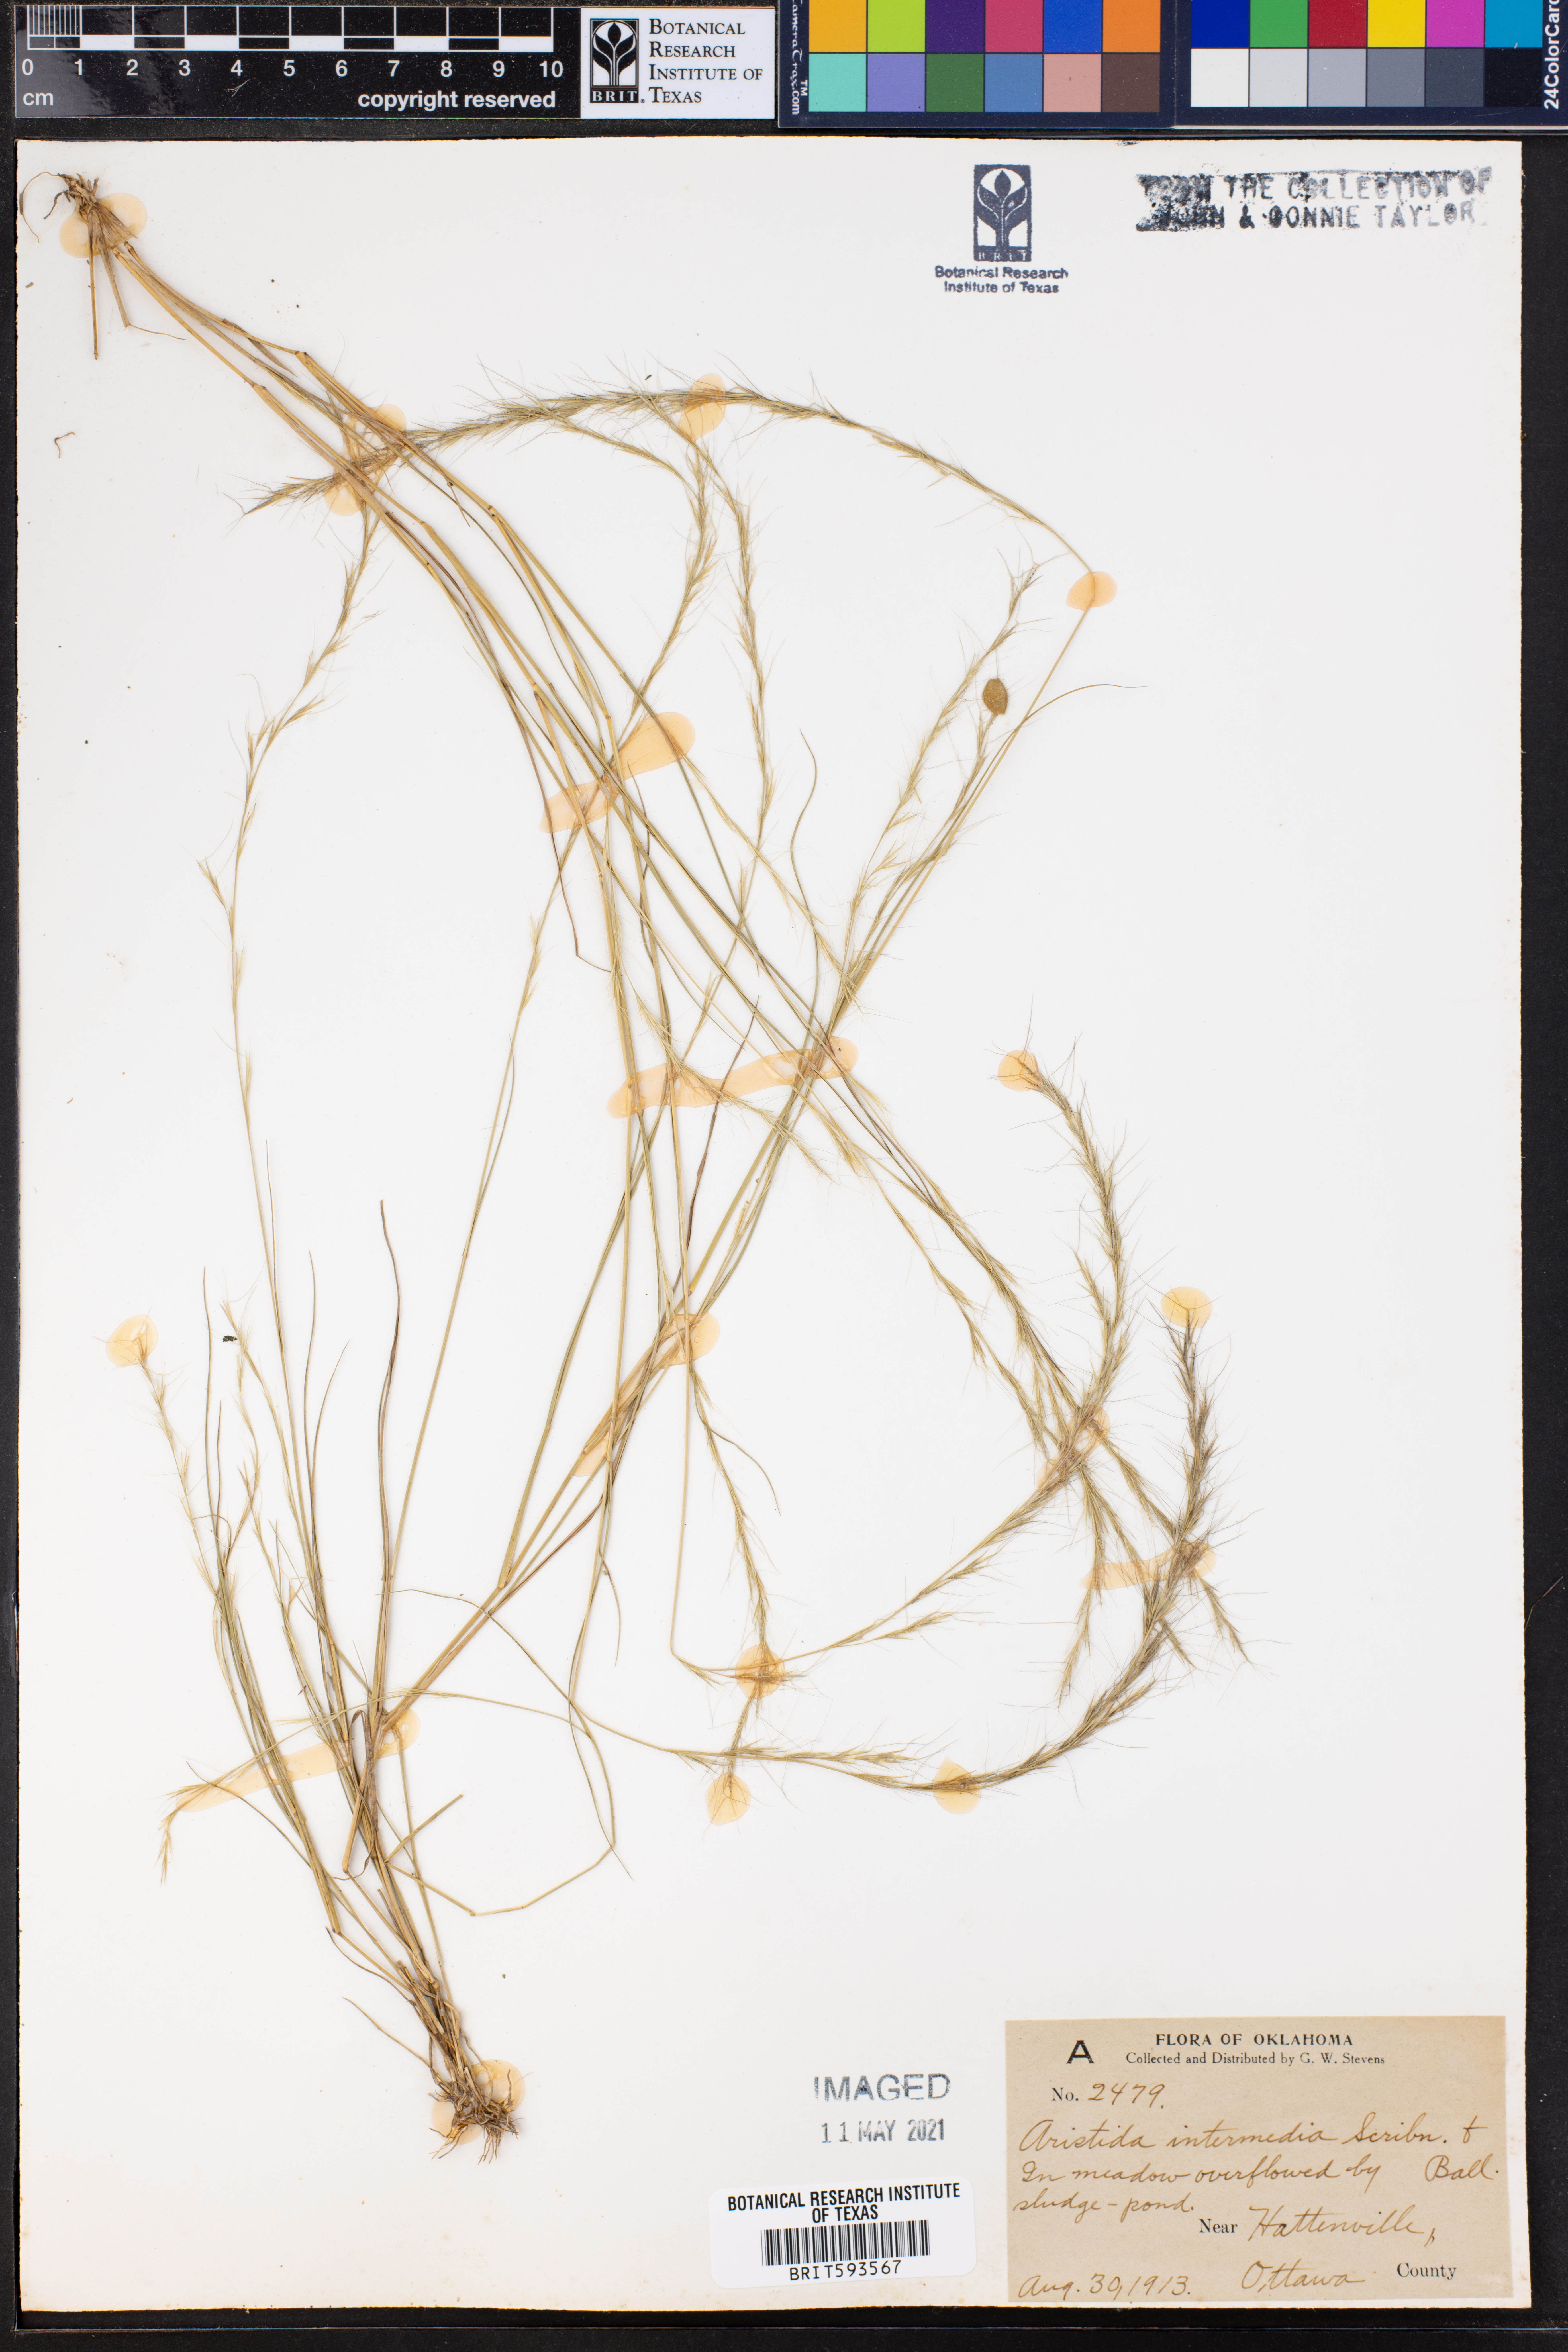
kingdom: Plantae
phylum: Tracheophyta
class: Liliopsida
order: Poales
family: Poaceae
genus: Aristida
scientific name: Aristida longespica
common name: Long-spiked triple-awned grass
